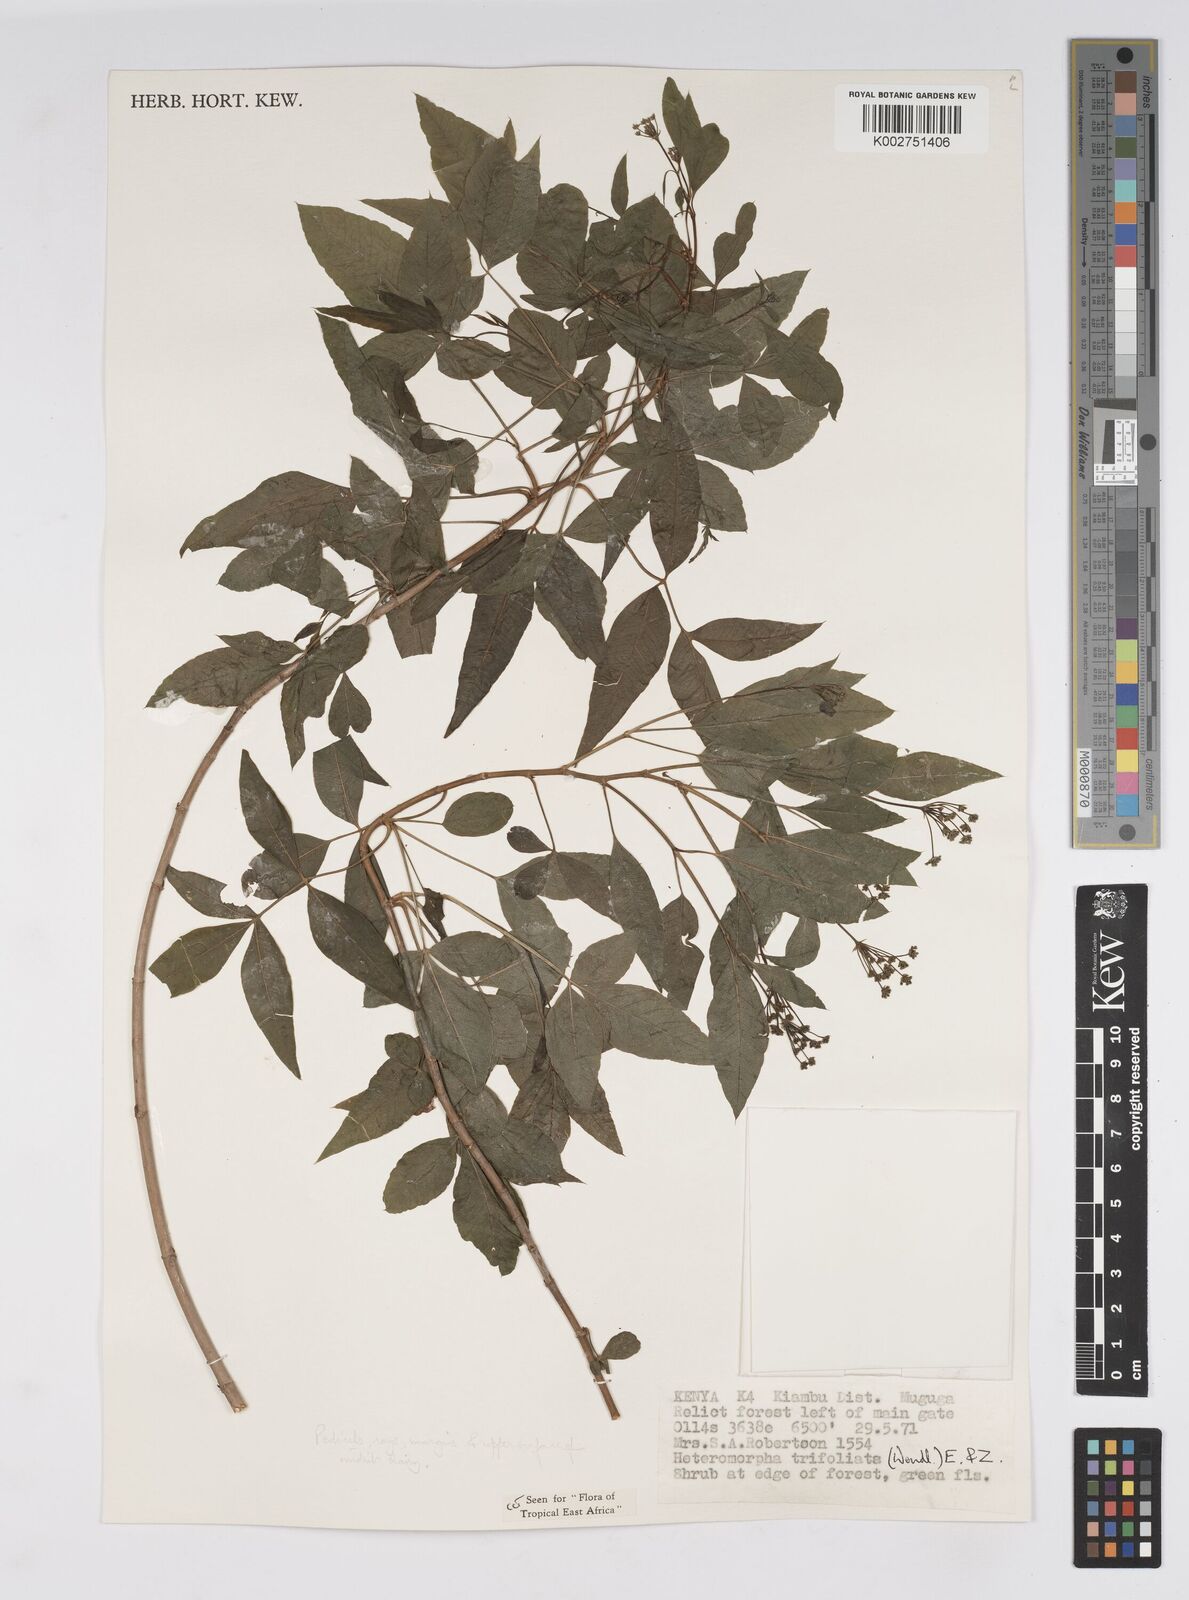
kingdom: Plantae
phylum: Tracheophyta
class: Magnoliopsida
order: Apiales
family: Apiaceae
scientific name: Apiaceae
